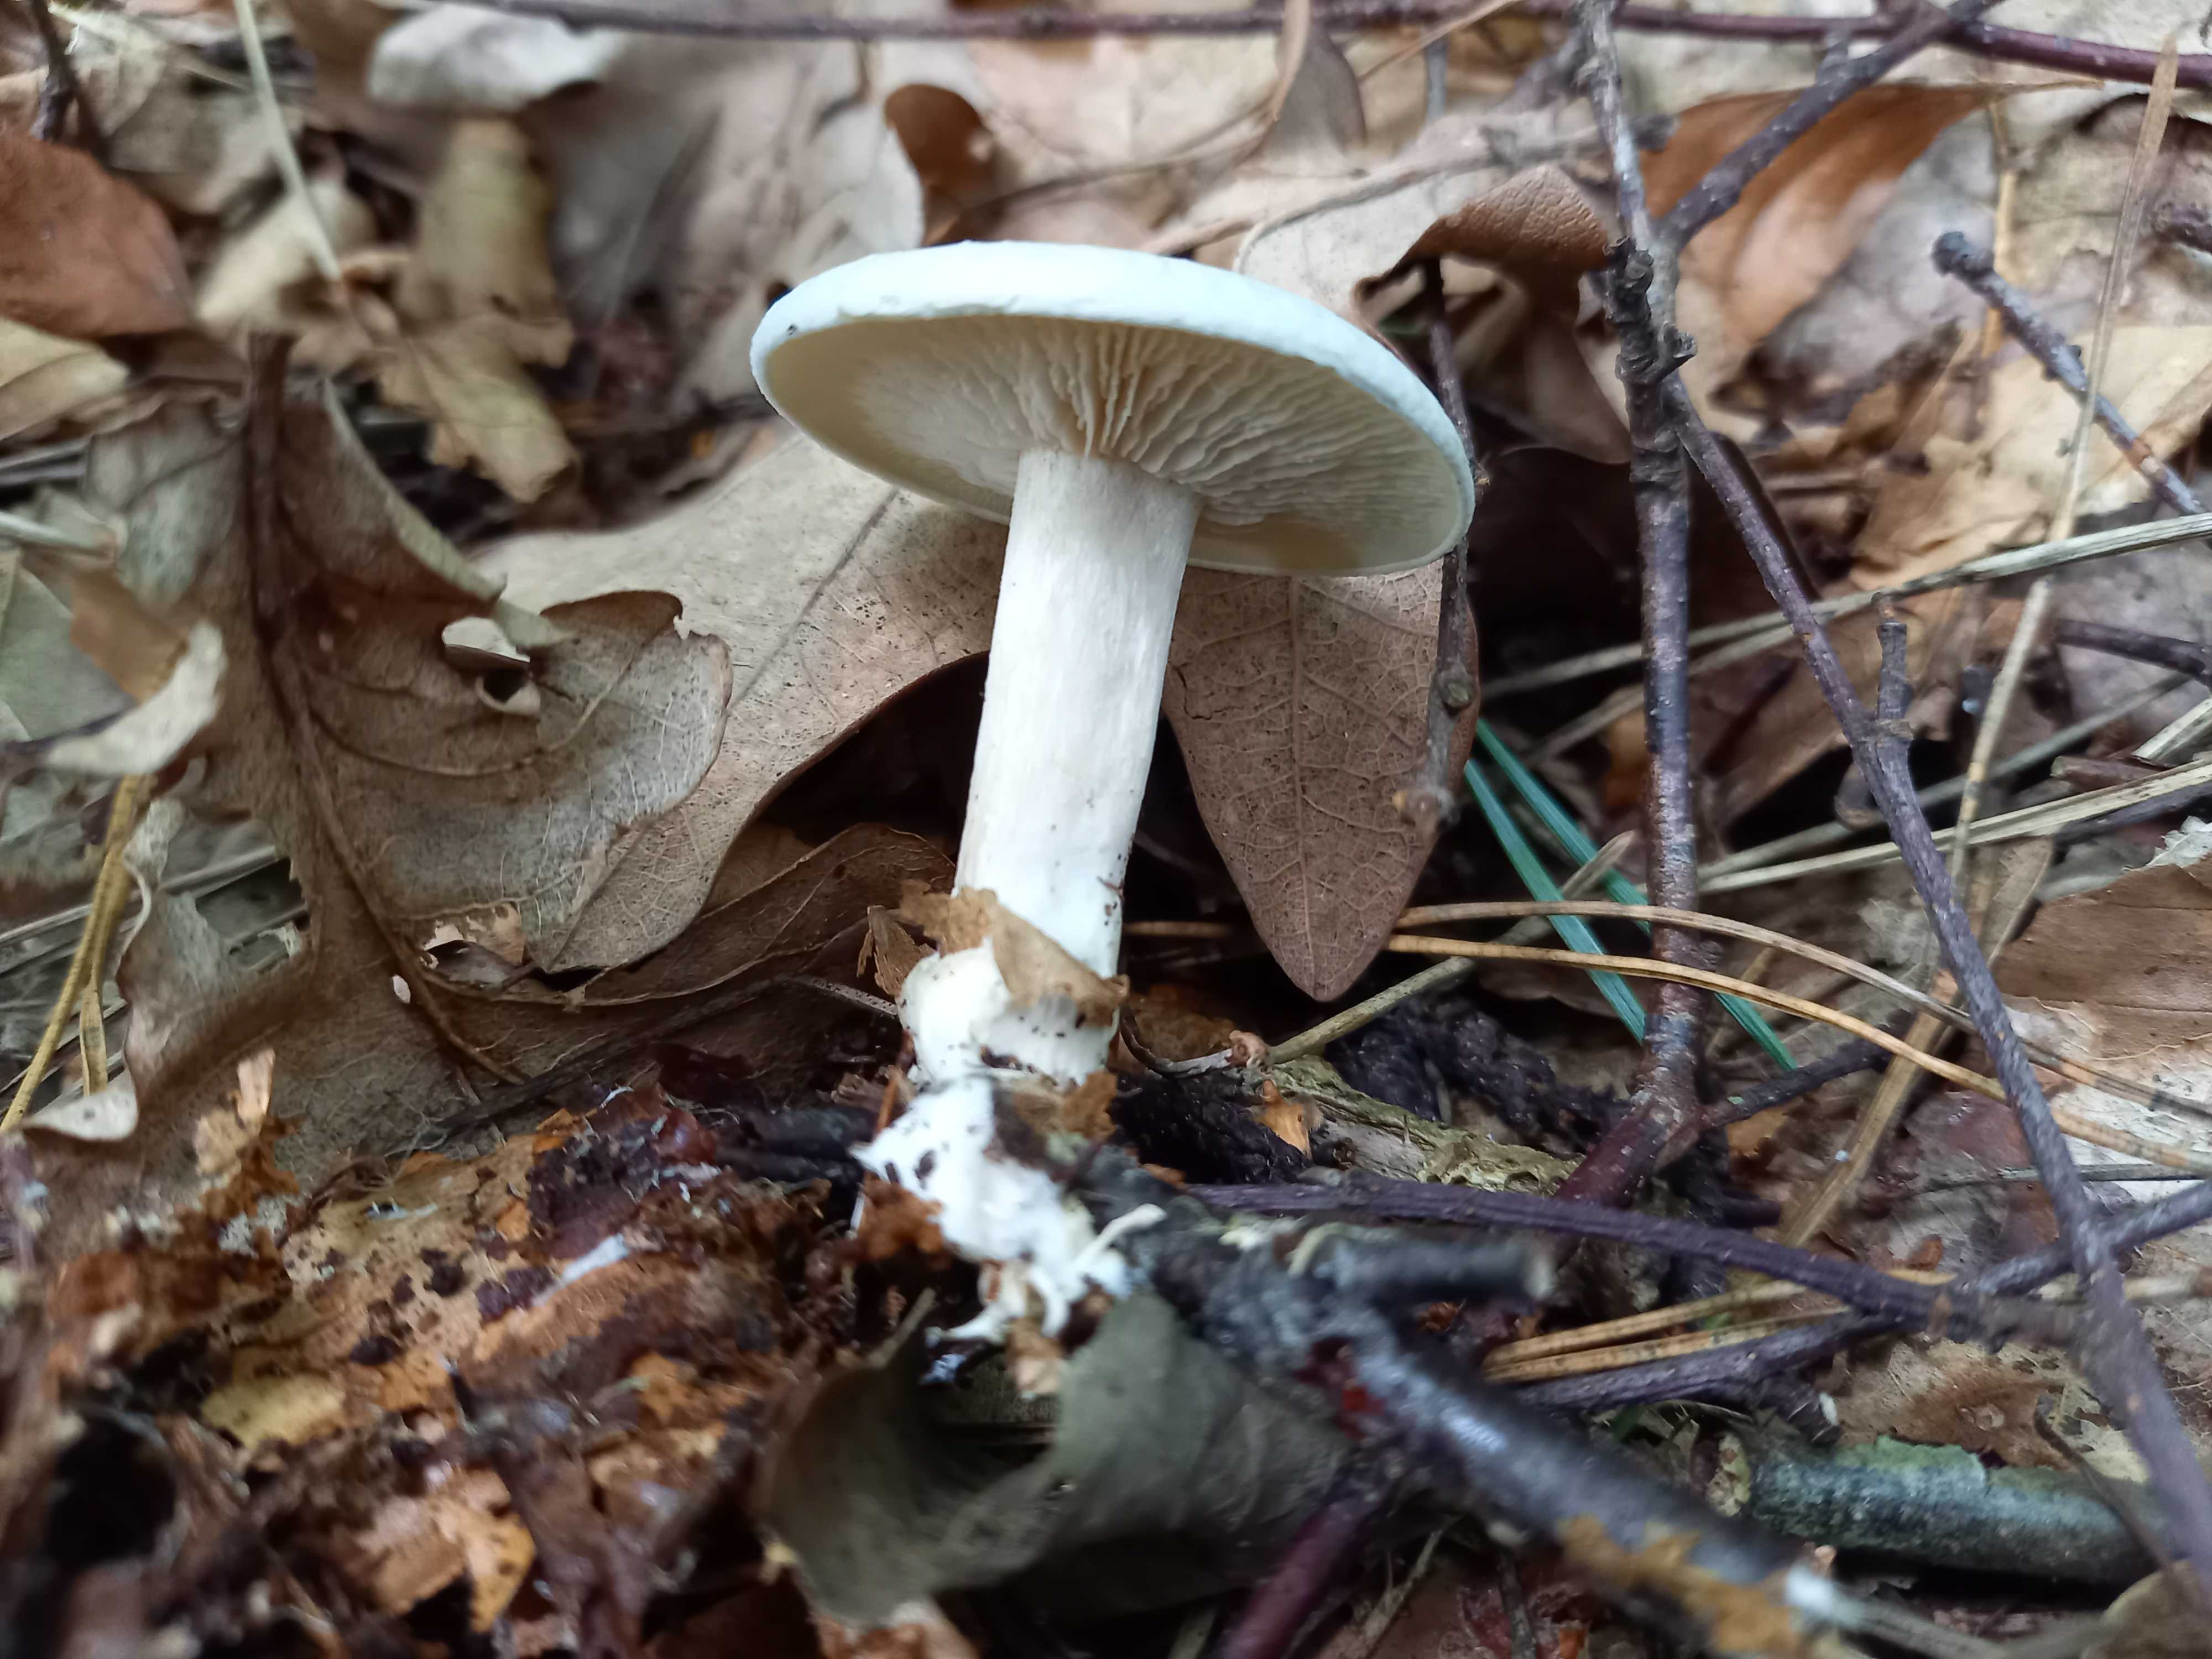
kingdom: Fungi
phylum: Basidiomycota
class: Agaricomycetes
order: Agaricales
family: Tricholomataceae
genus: Clitocybe
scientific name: Clitocybe odora
